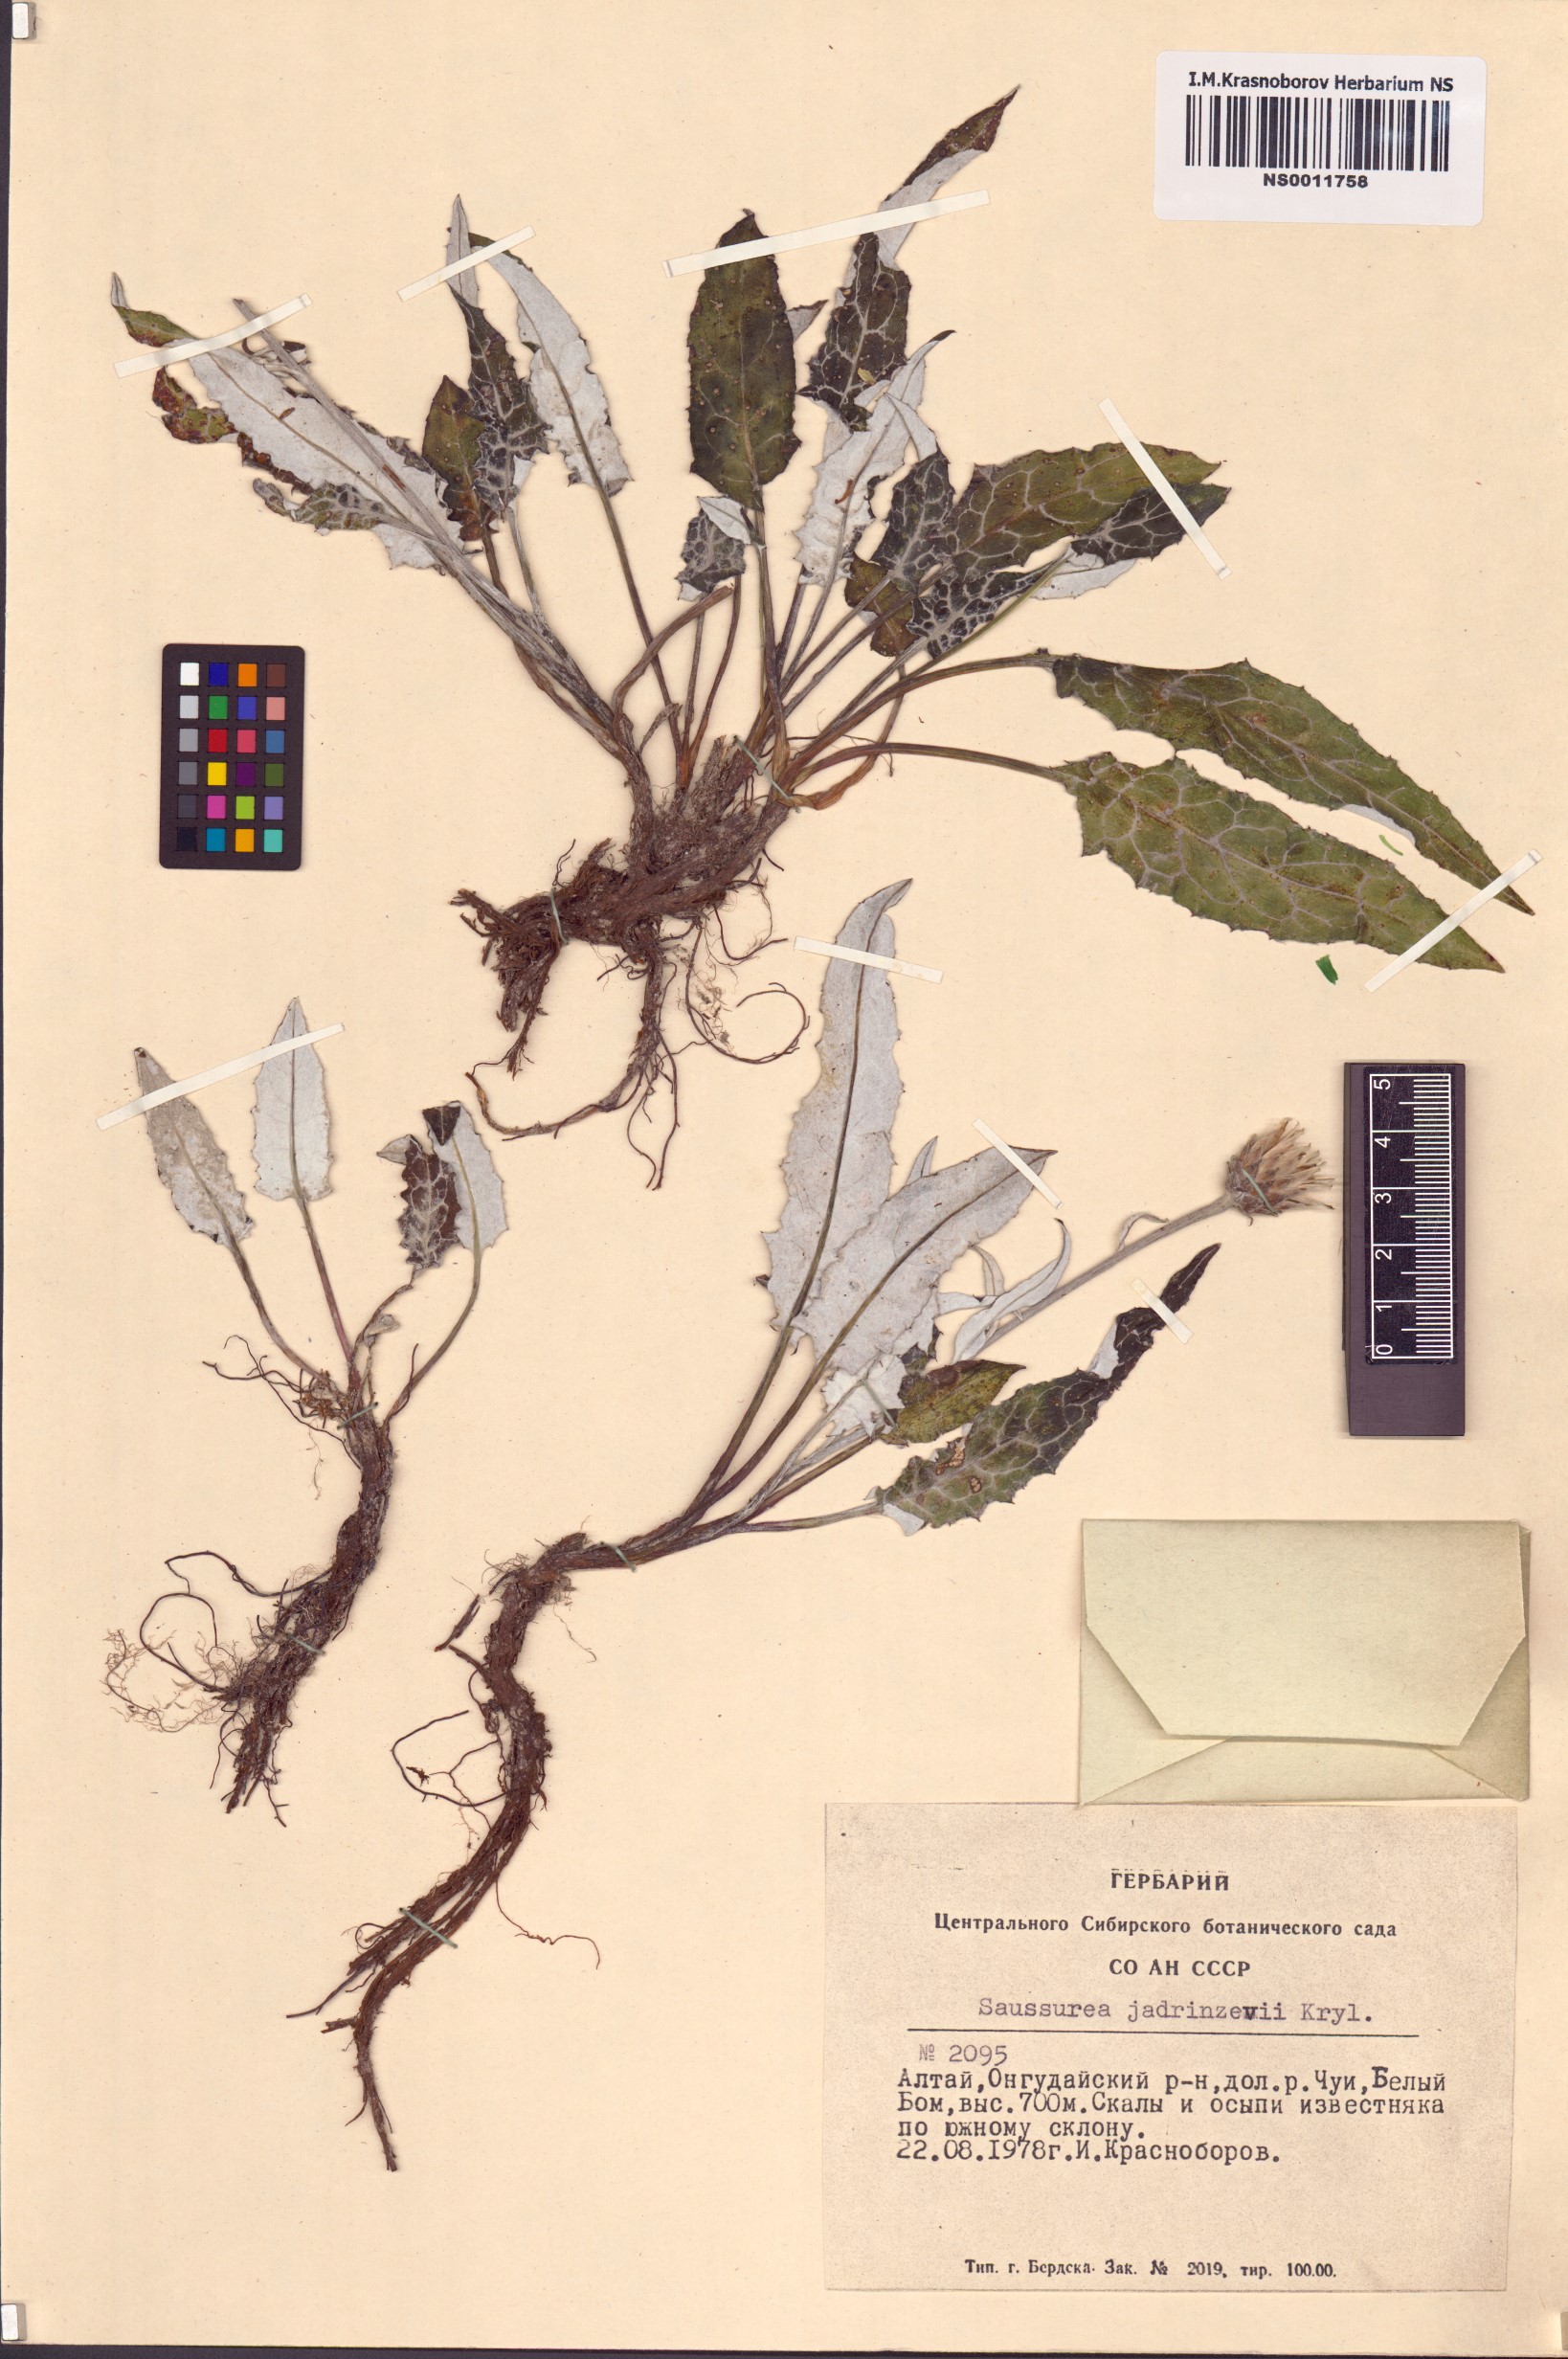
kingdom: Plantae
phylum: Tracheophyta
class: Magnoliopsida
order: Asterales
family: Asteraceae
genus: Saussurea
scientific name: Saussurea jadrincevii
